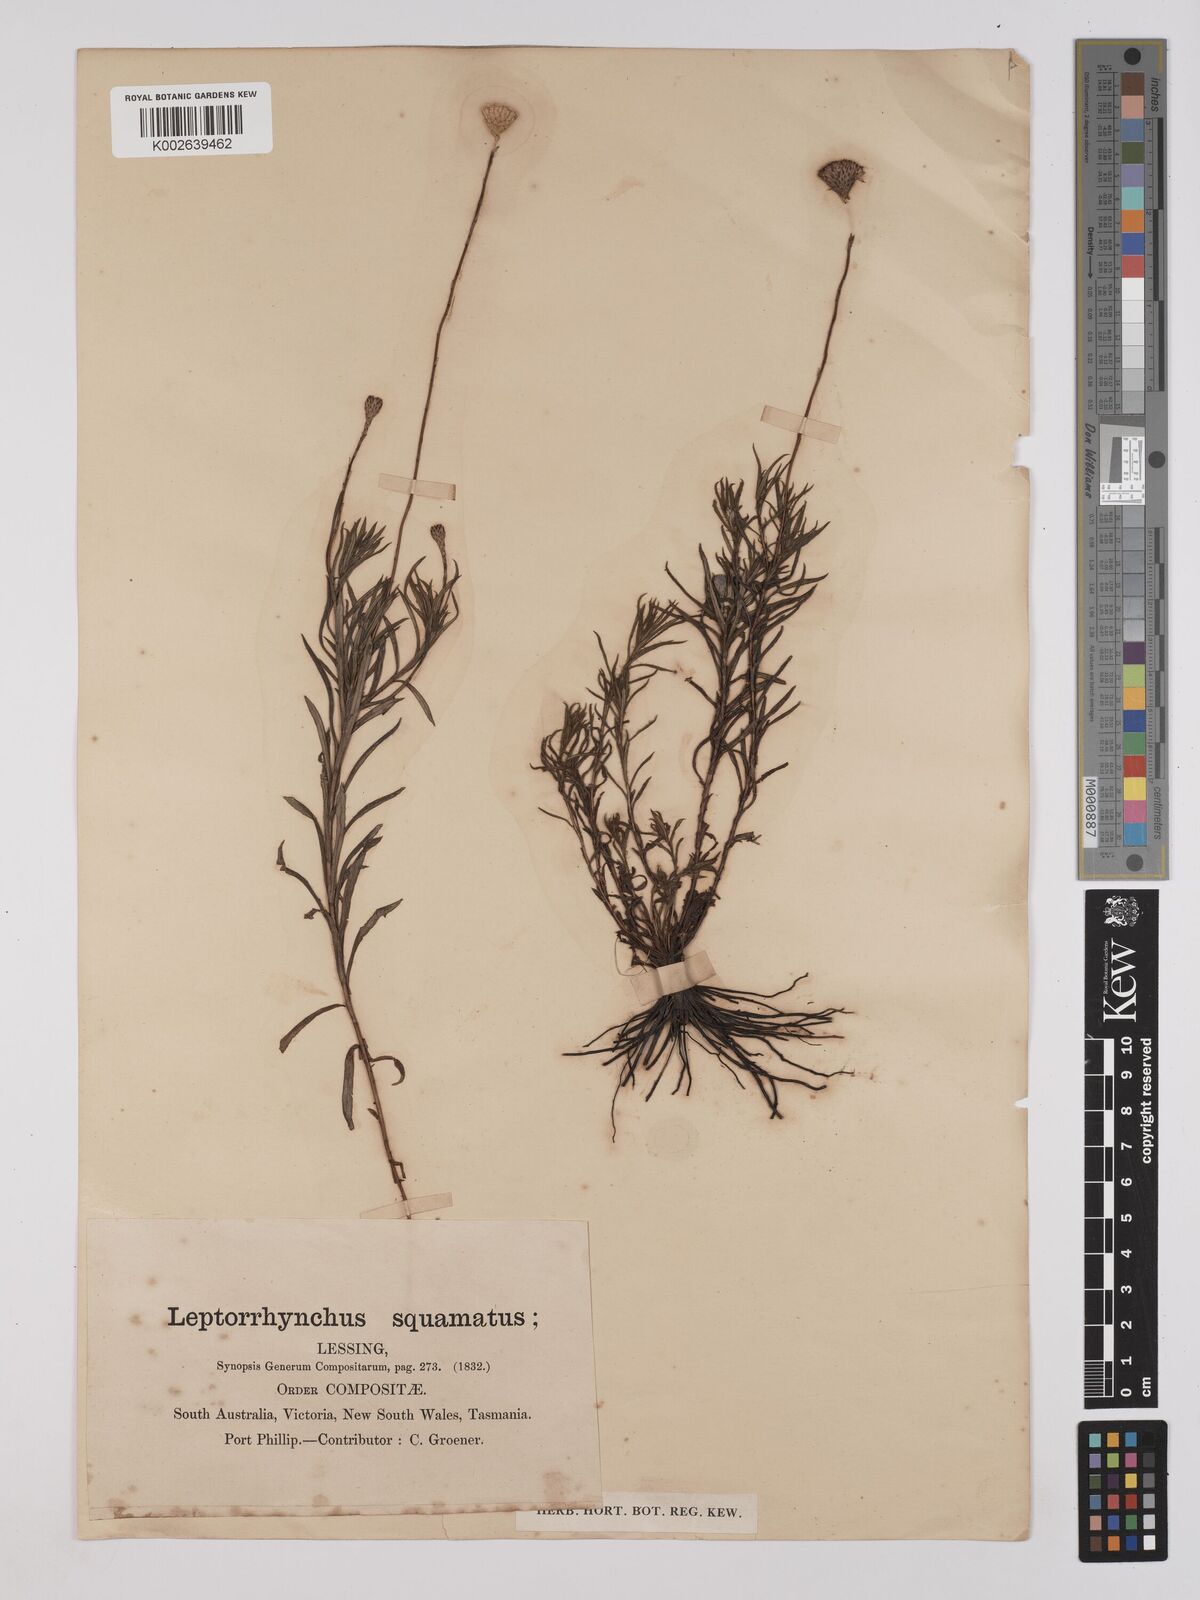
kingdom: Plantae
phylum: Tracheophyta
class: Magnoliopsida
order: Asterales
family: Asteraceae
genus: Leptorhynchos
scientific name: Leptorhynchos squamatus
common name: Scaly-buttons
